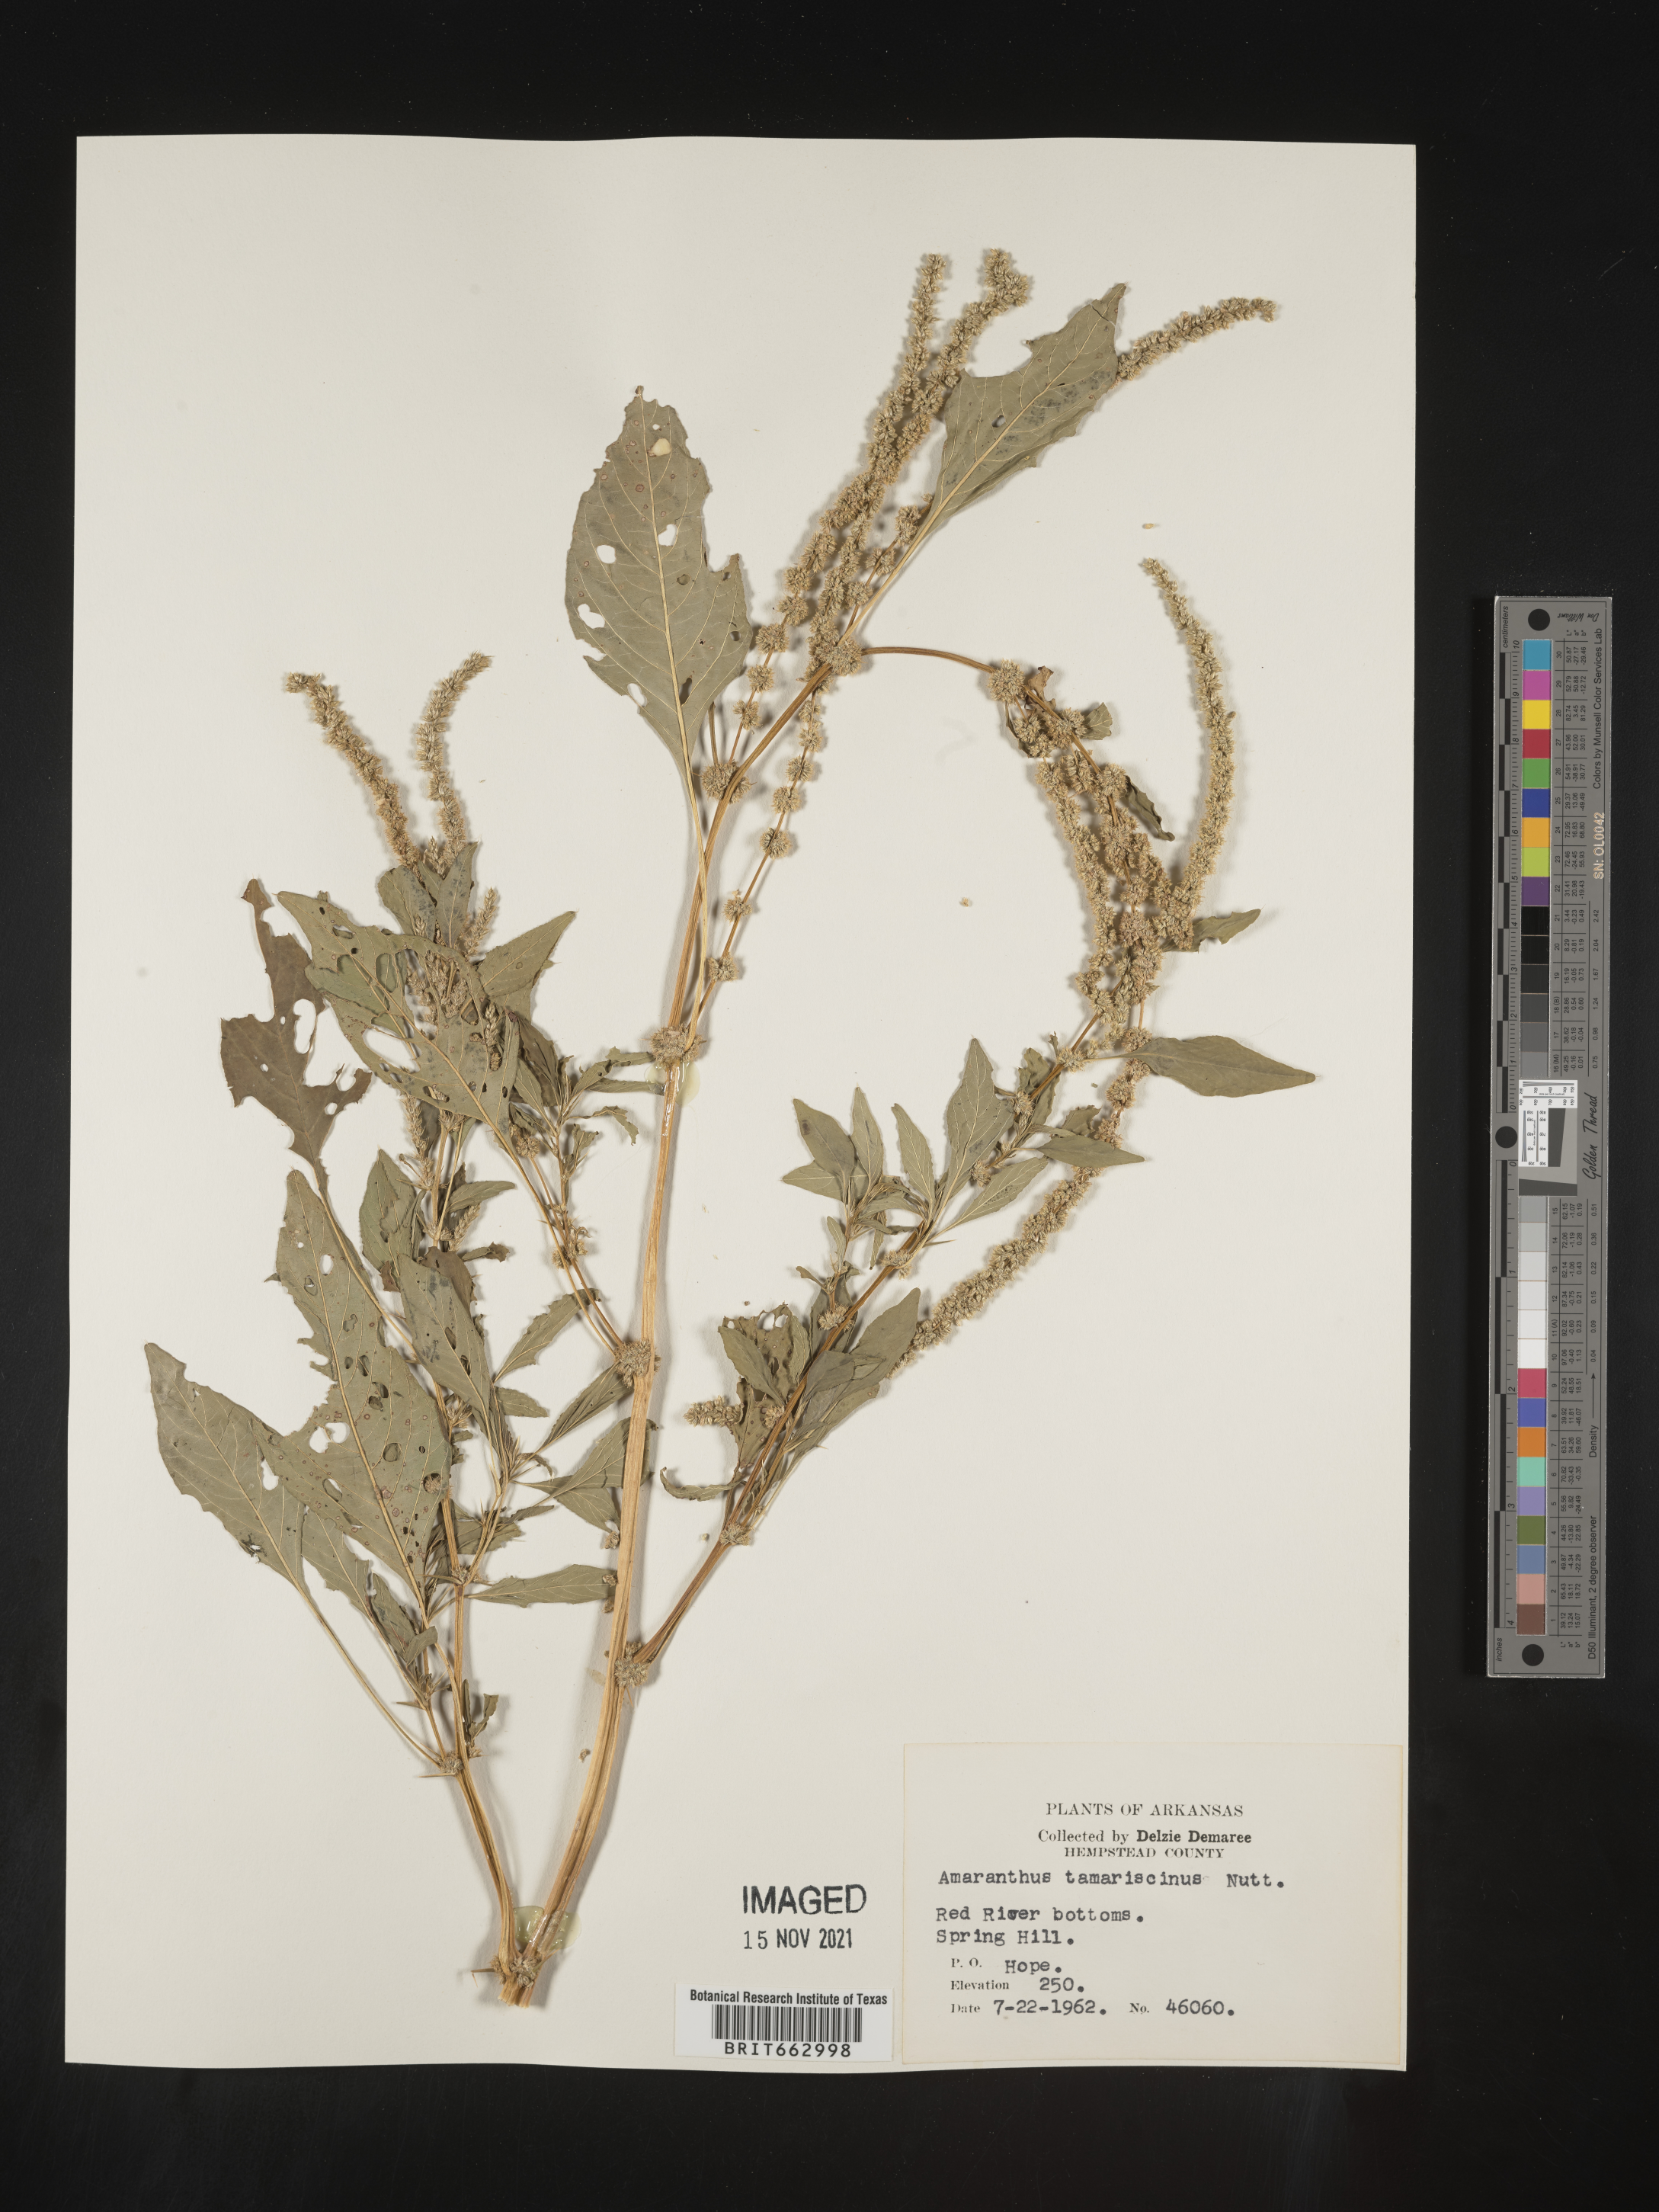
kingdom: Plantae
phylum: Tracheophyta
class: Magnoliopsida
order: Caryophyllales
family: Amaranthaceae
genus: Amaranthus
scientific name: Amaranthus spinosus
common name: Spiny amaranth
